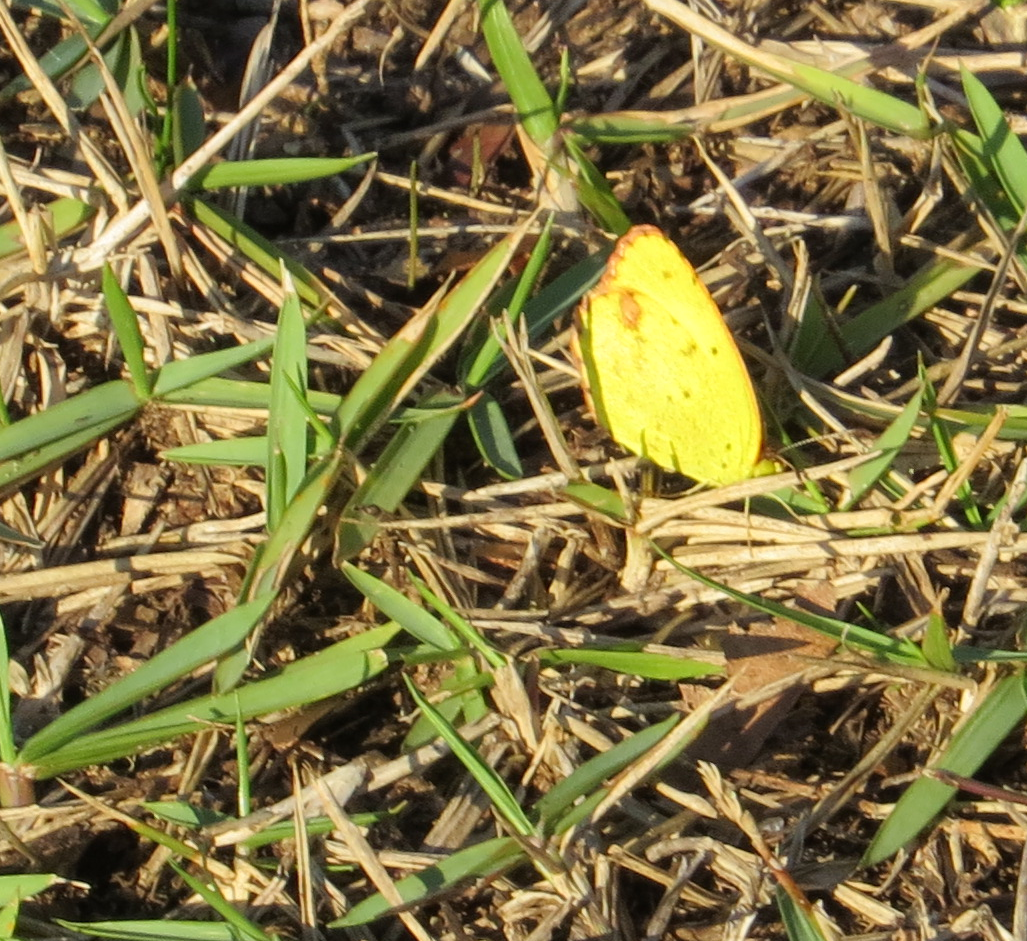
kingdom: Animalia
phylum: Arthropoda
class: Insecta
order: Lepidoptera
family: Pieridae
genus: Pyrisitia
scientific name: Pyrisitia lisa
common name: Little Yellow
